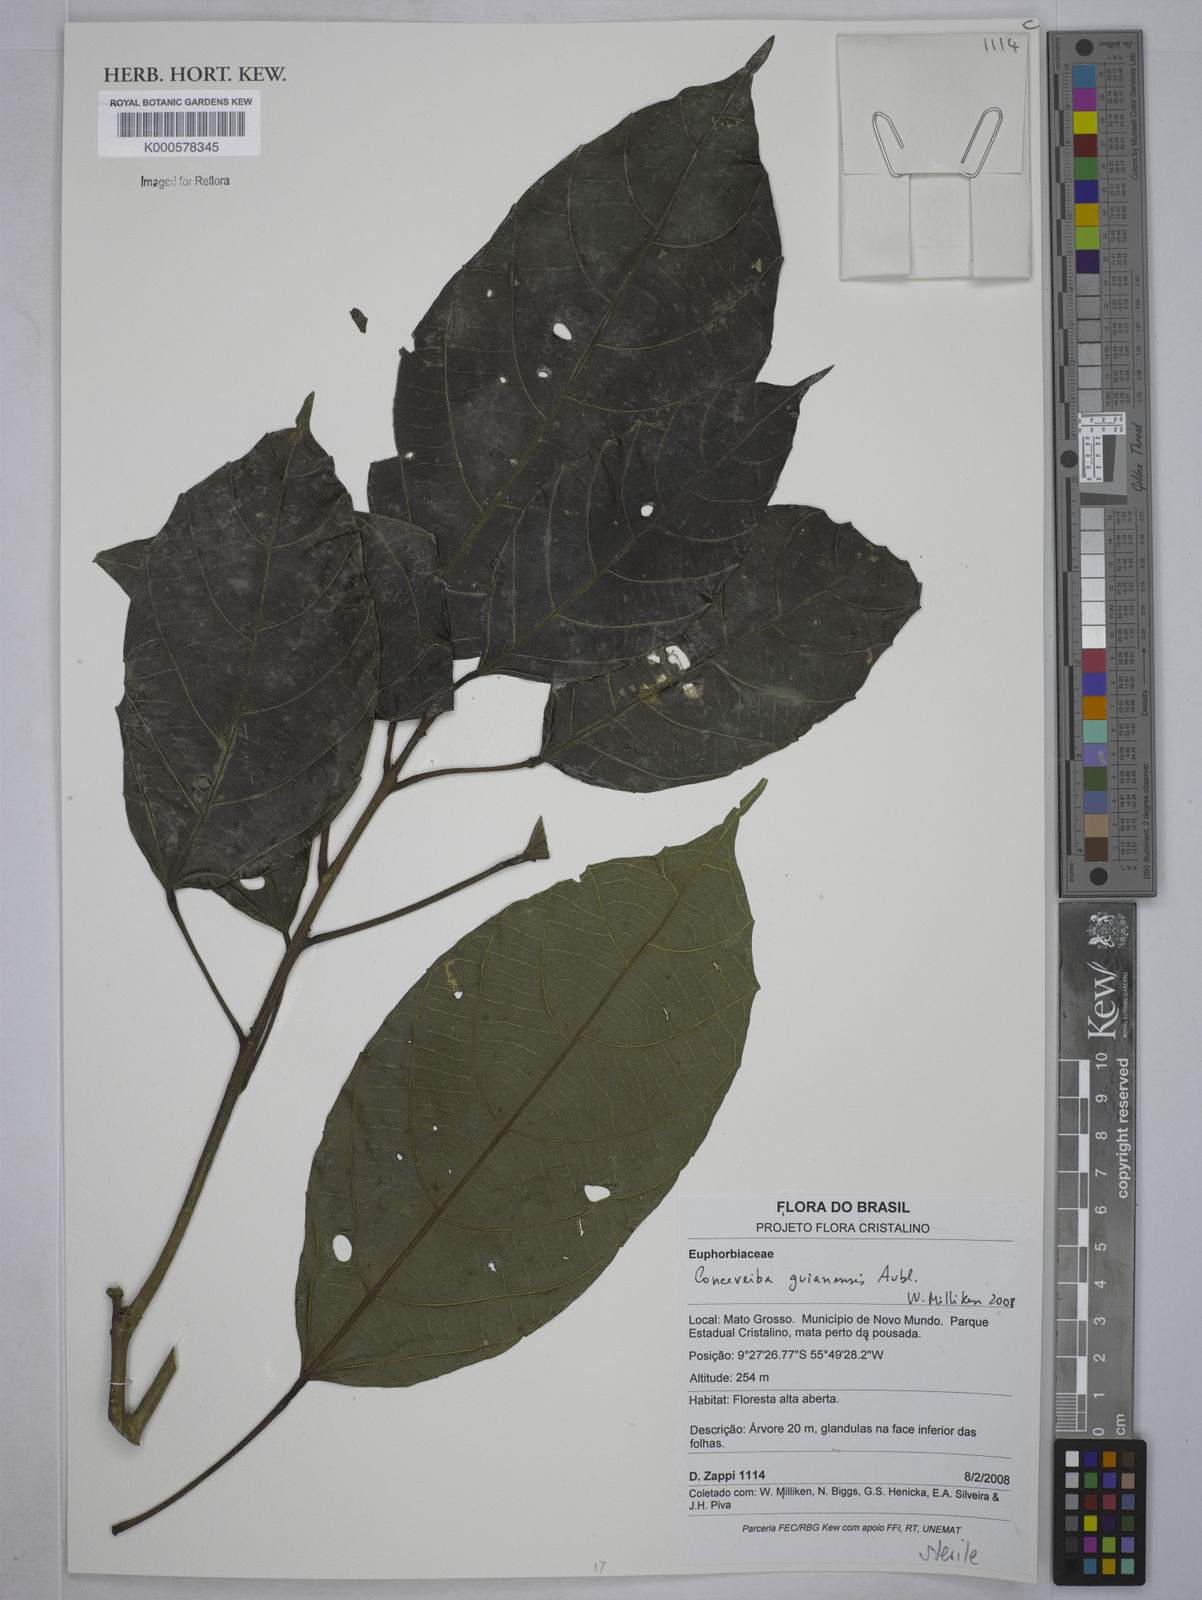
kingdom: Plantae
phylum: Tracheophyta
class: Magnoliopsida
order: Malpighiales
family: Euphorbiaceae
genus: Conceveiba
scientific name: Conceveiba guianensis
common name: Poatoru
